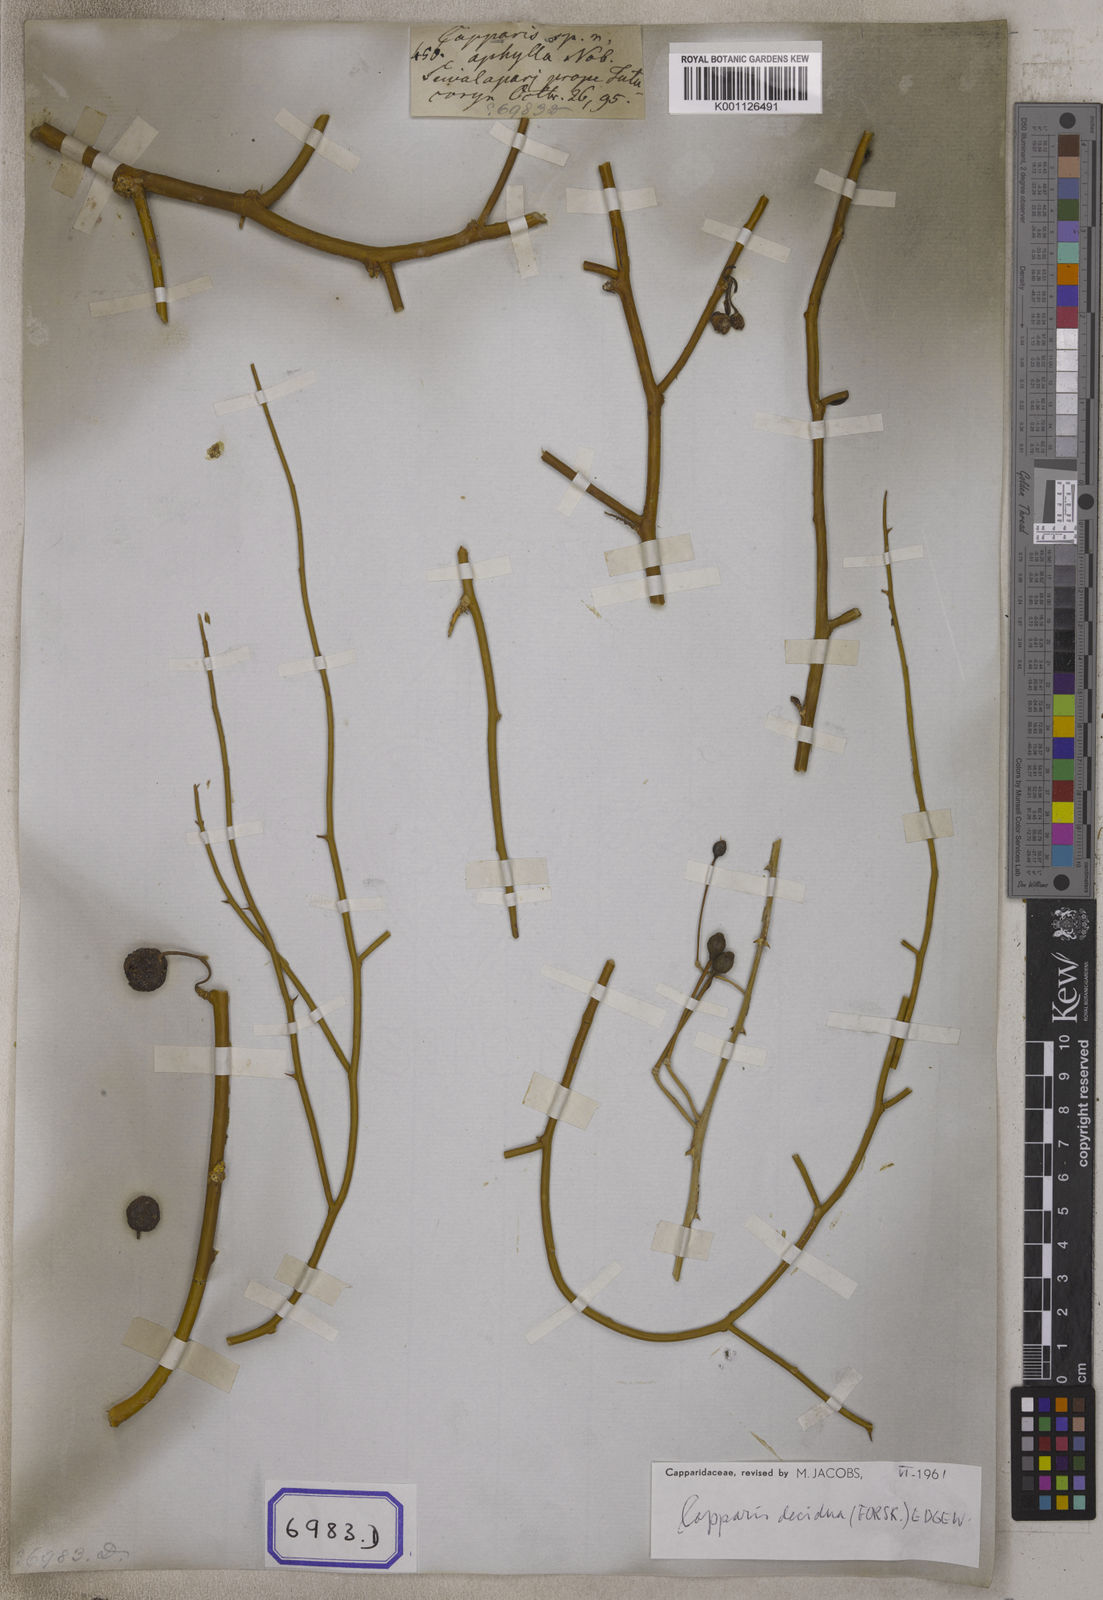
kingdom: Plantae
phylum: Tracheophyta
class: Magnoliopsida
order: Brassicales
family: Capparaceae
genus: Capparis
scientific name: Capparis decidua
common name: Sodada
